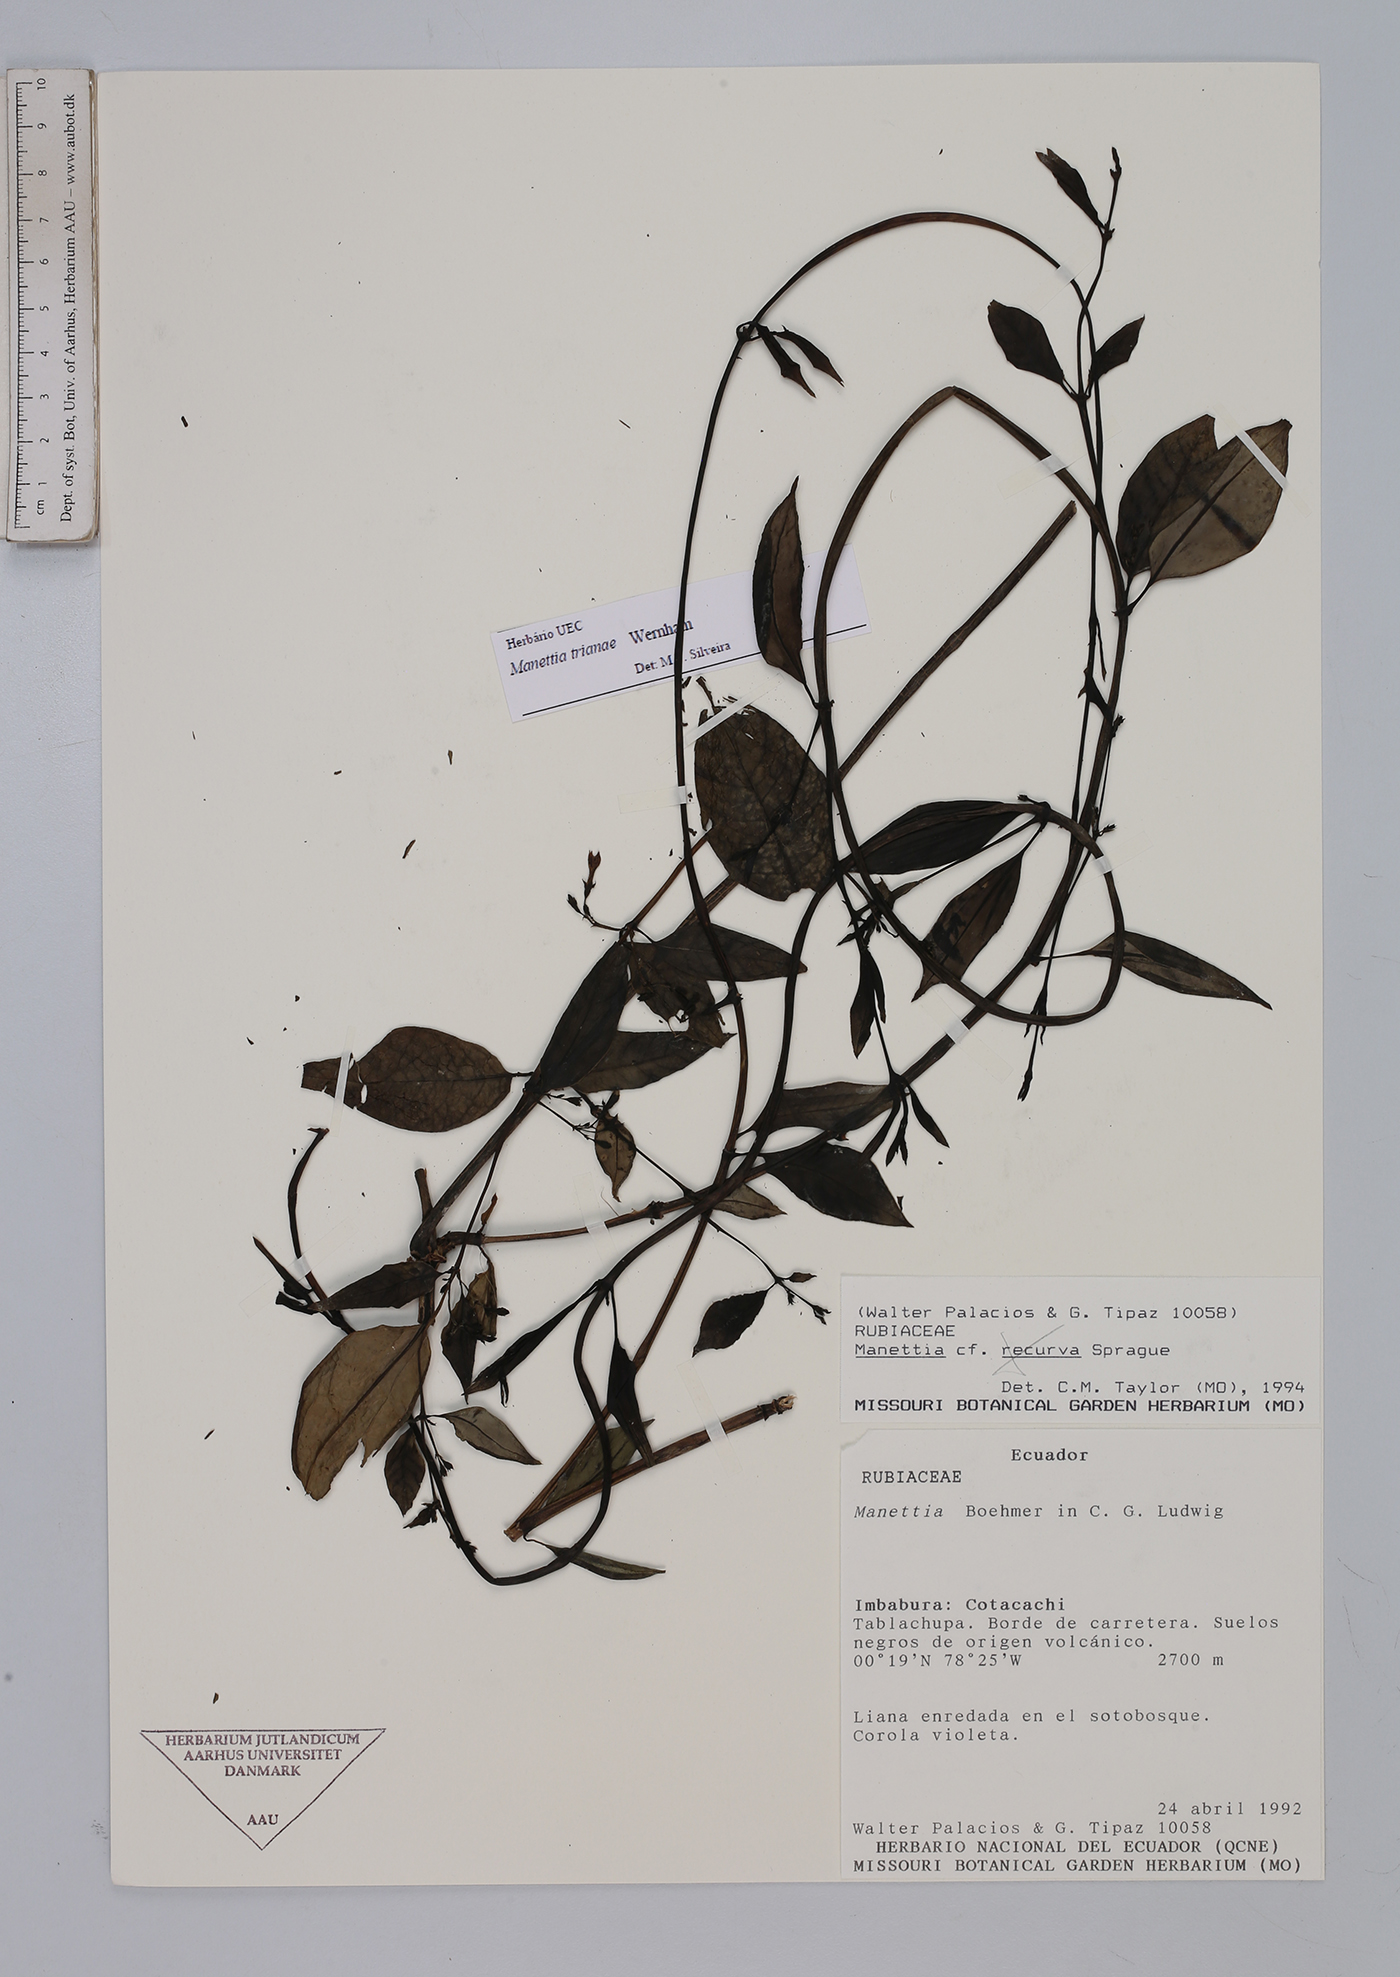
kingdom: Plantae
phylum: Tracheophyta
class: Magnoliopsida
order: Gentianales
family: Rubiaceae
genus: Manettia
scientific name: Manettia trianae
